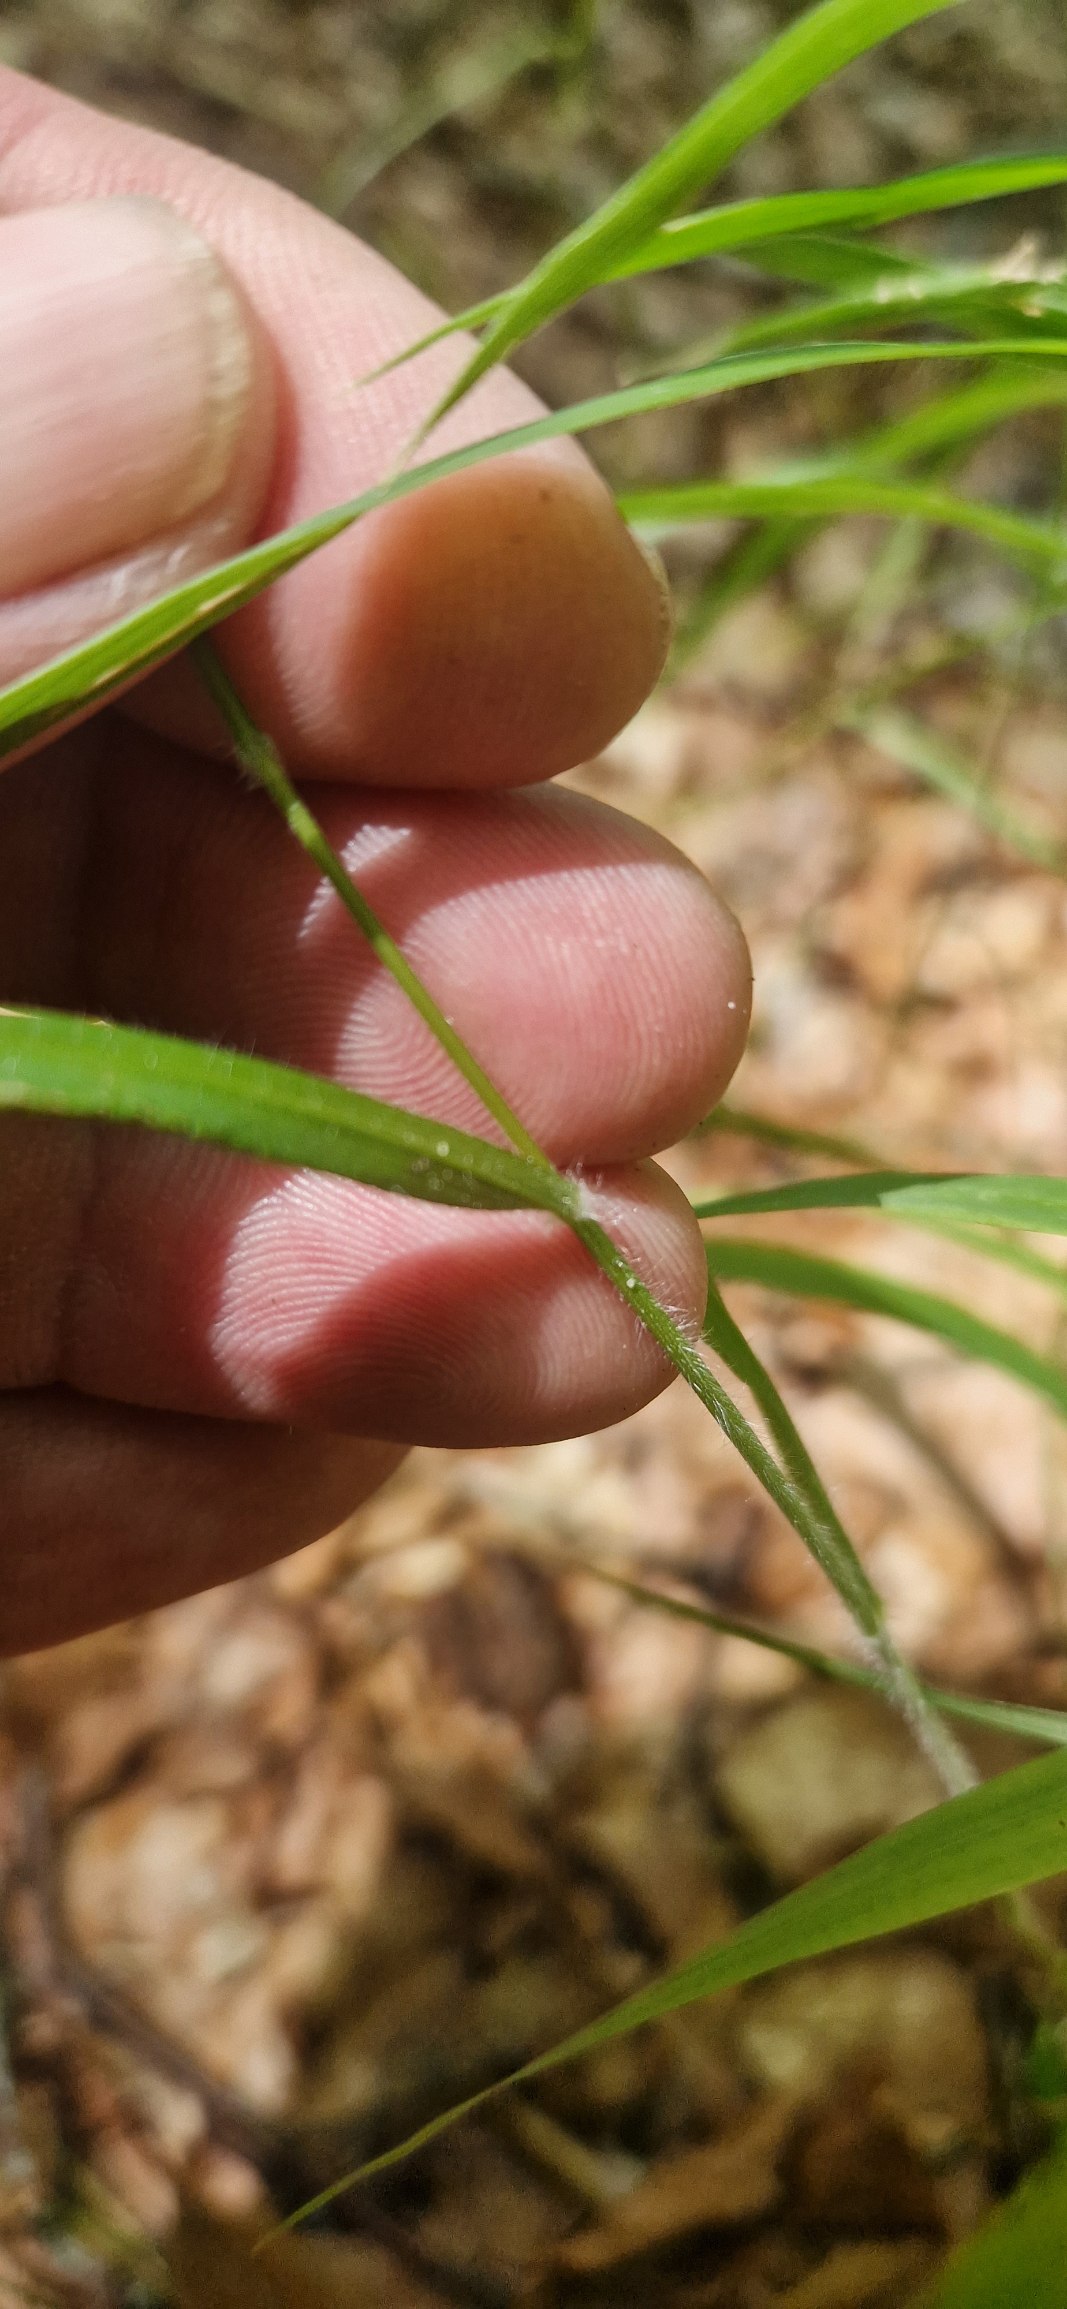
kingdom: Plantae
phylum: Tracheophyta
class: Liliopsida
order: Poales
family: Poaceae
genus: Brachypodium
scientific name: Brachypodium sylvaticum
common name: Skov-stilkaks
